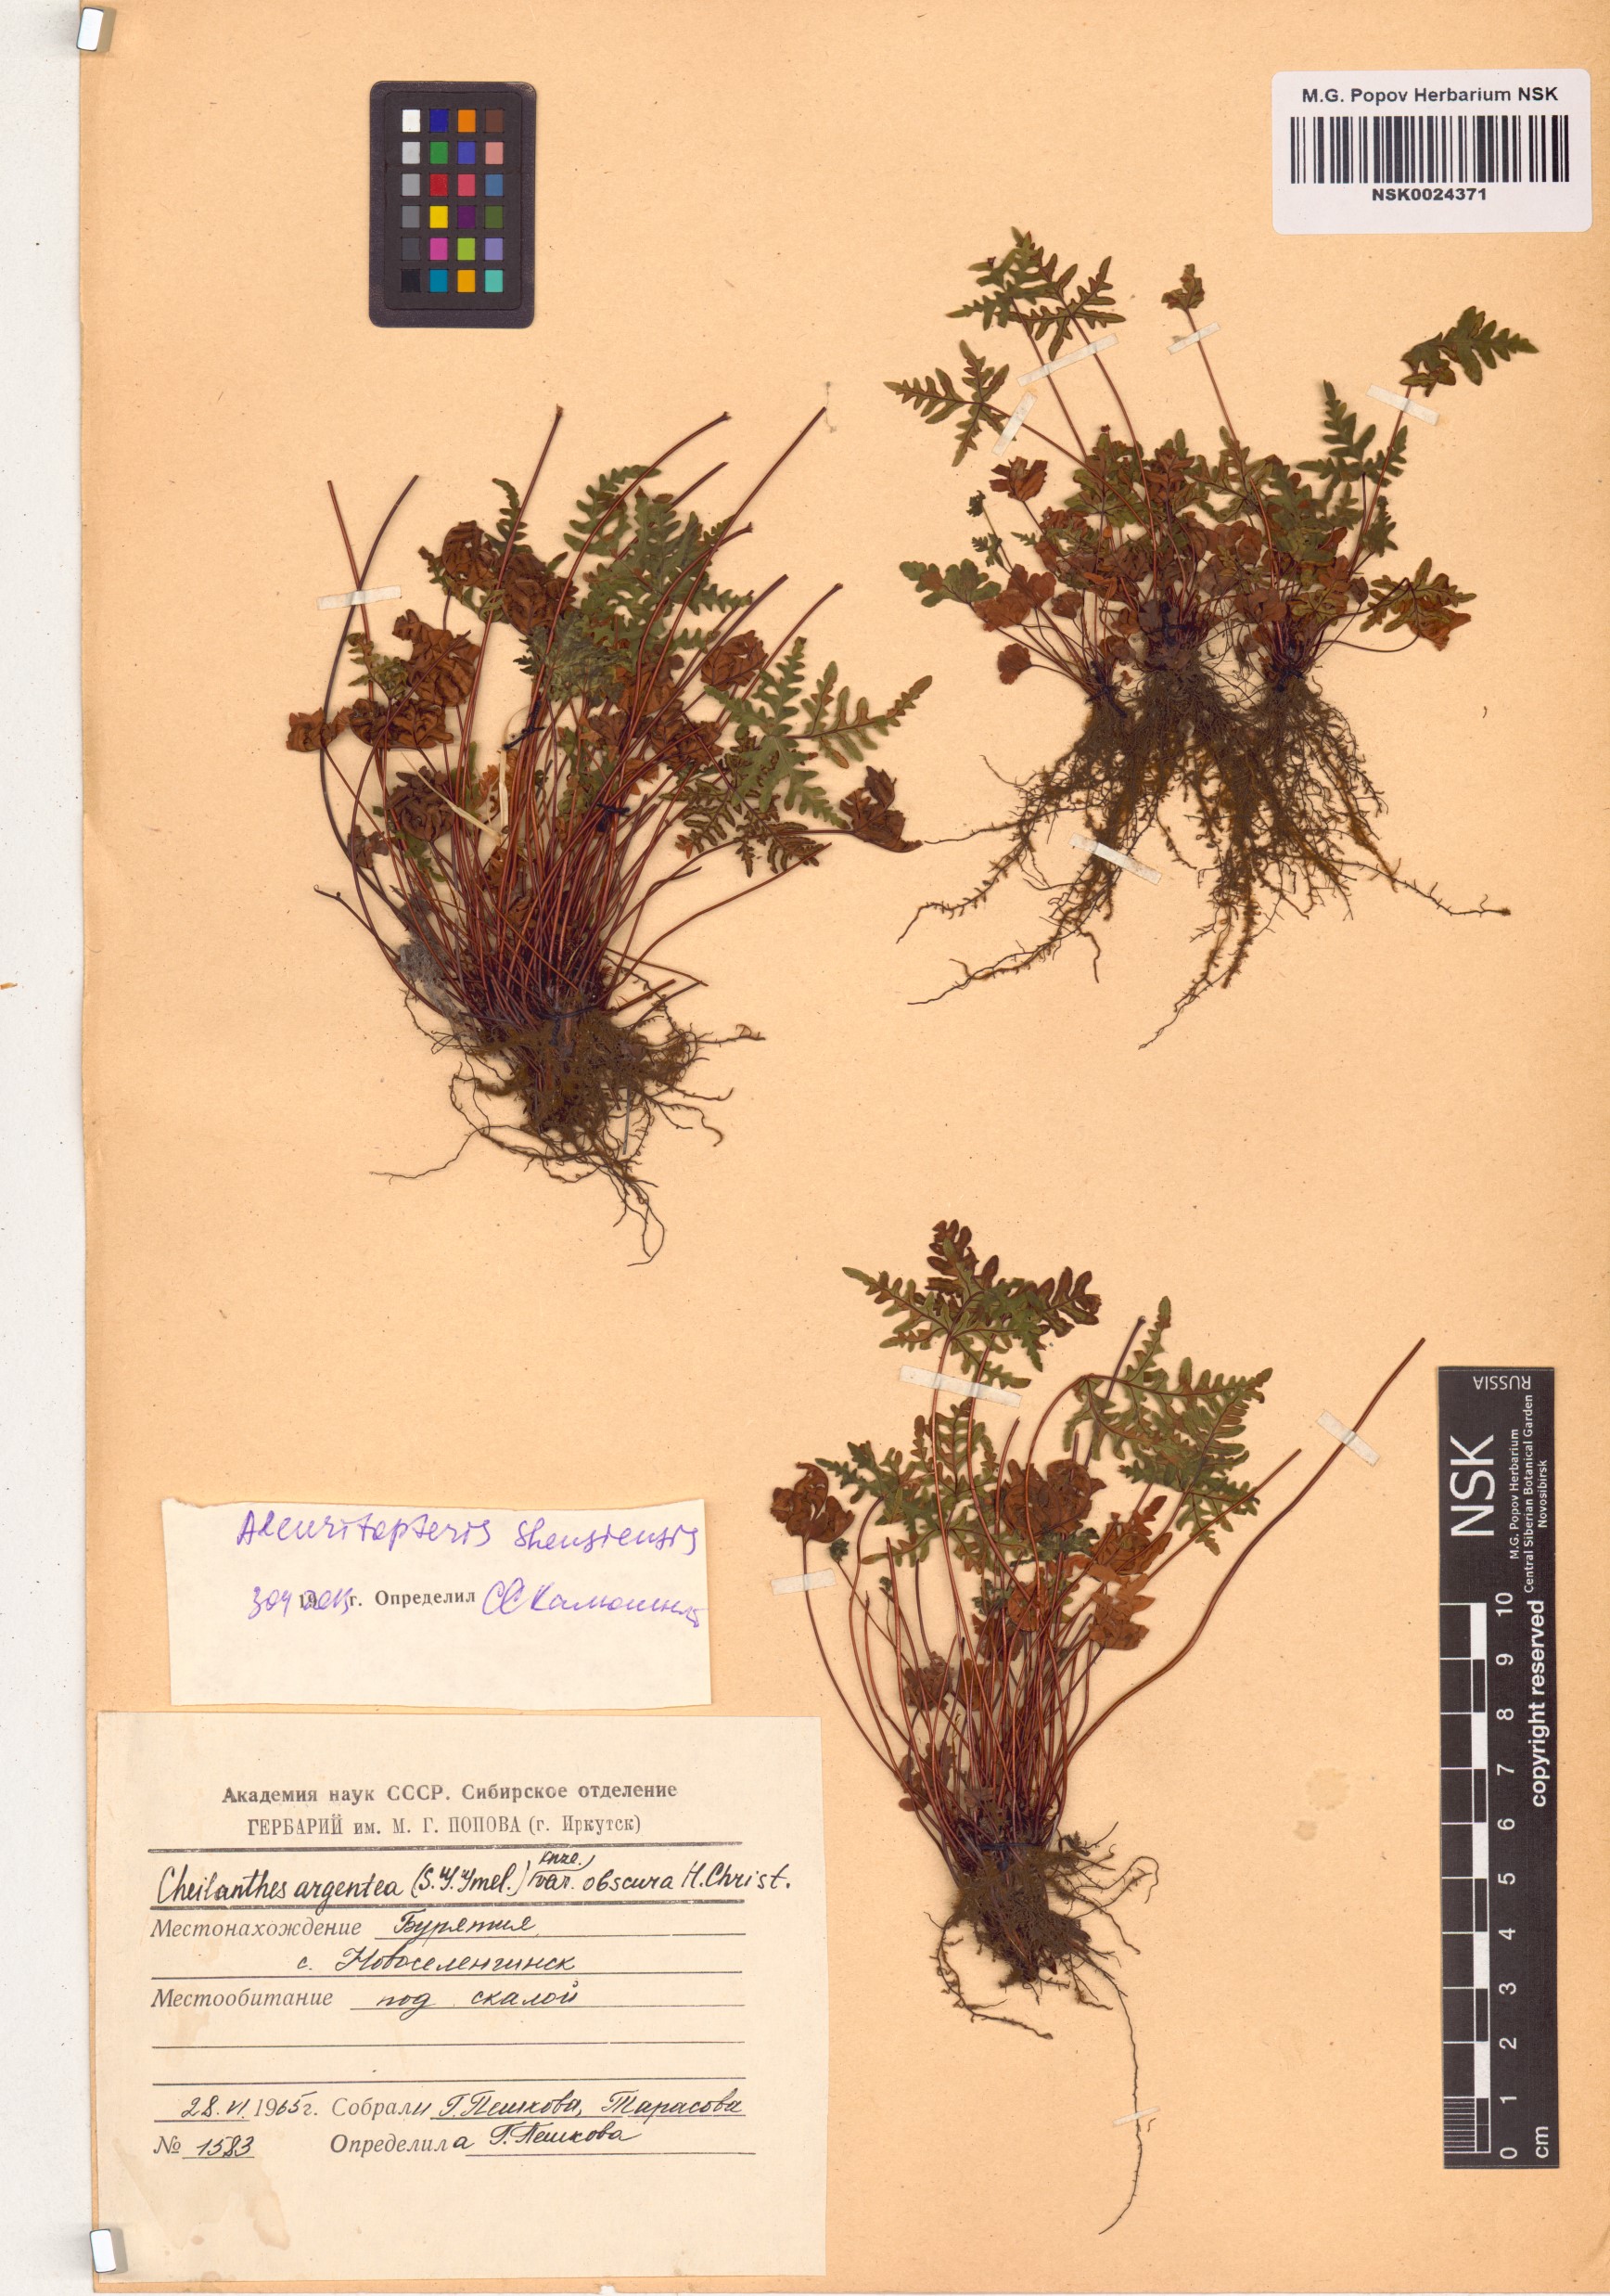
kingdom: Plantae
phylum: Tracheophyta
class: Polypodiopsida
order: Polypodiales
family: Pteridaceae
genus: Aleuritopteris
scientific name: Aleuritopteris argentea
